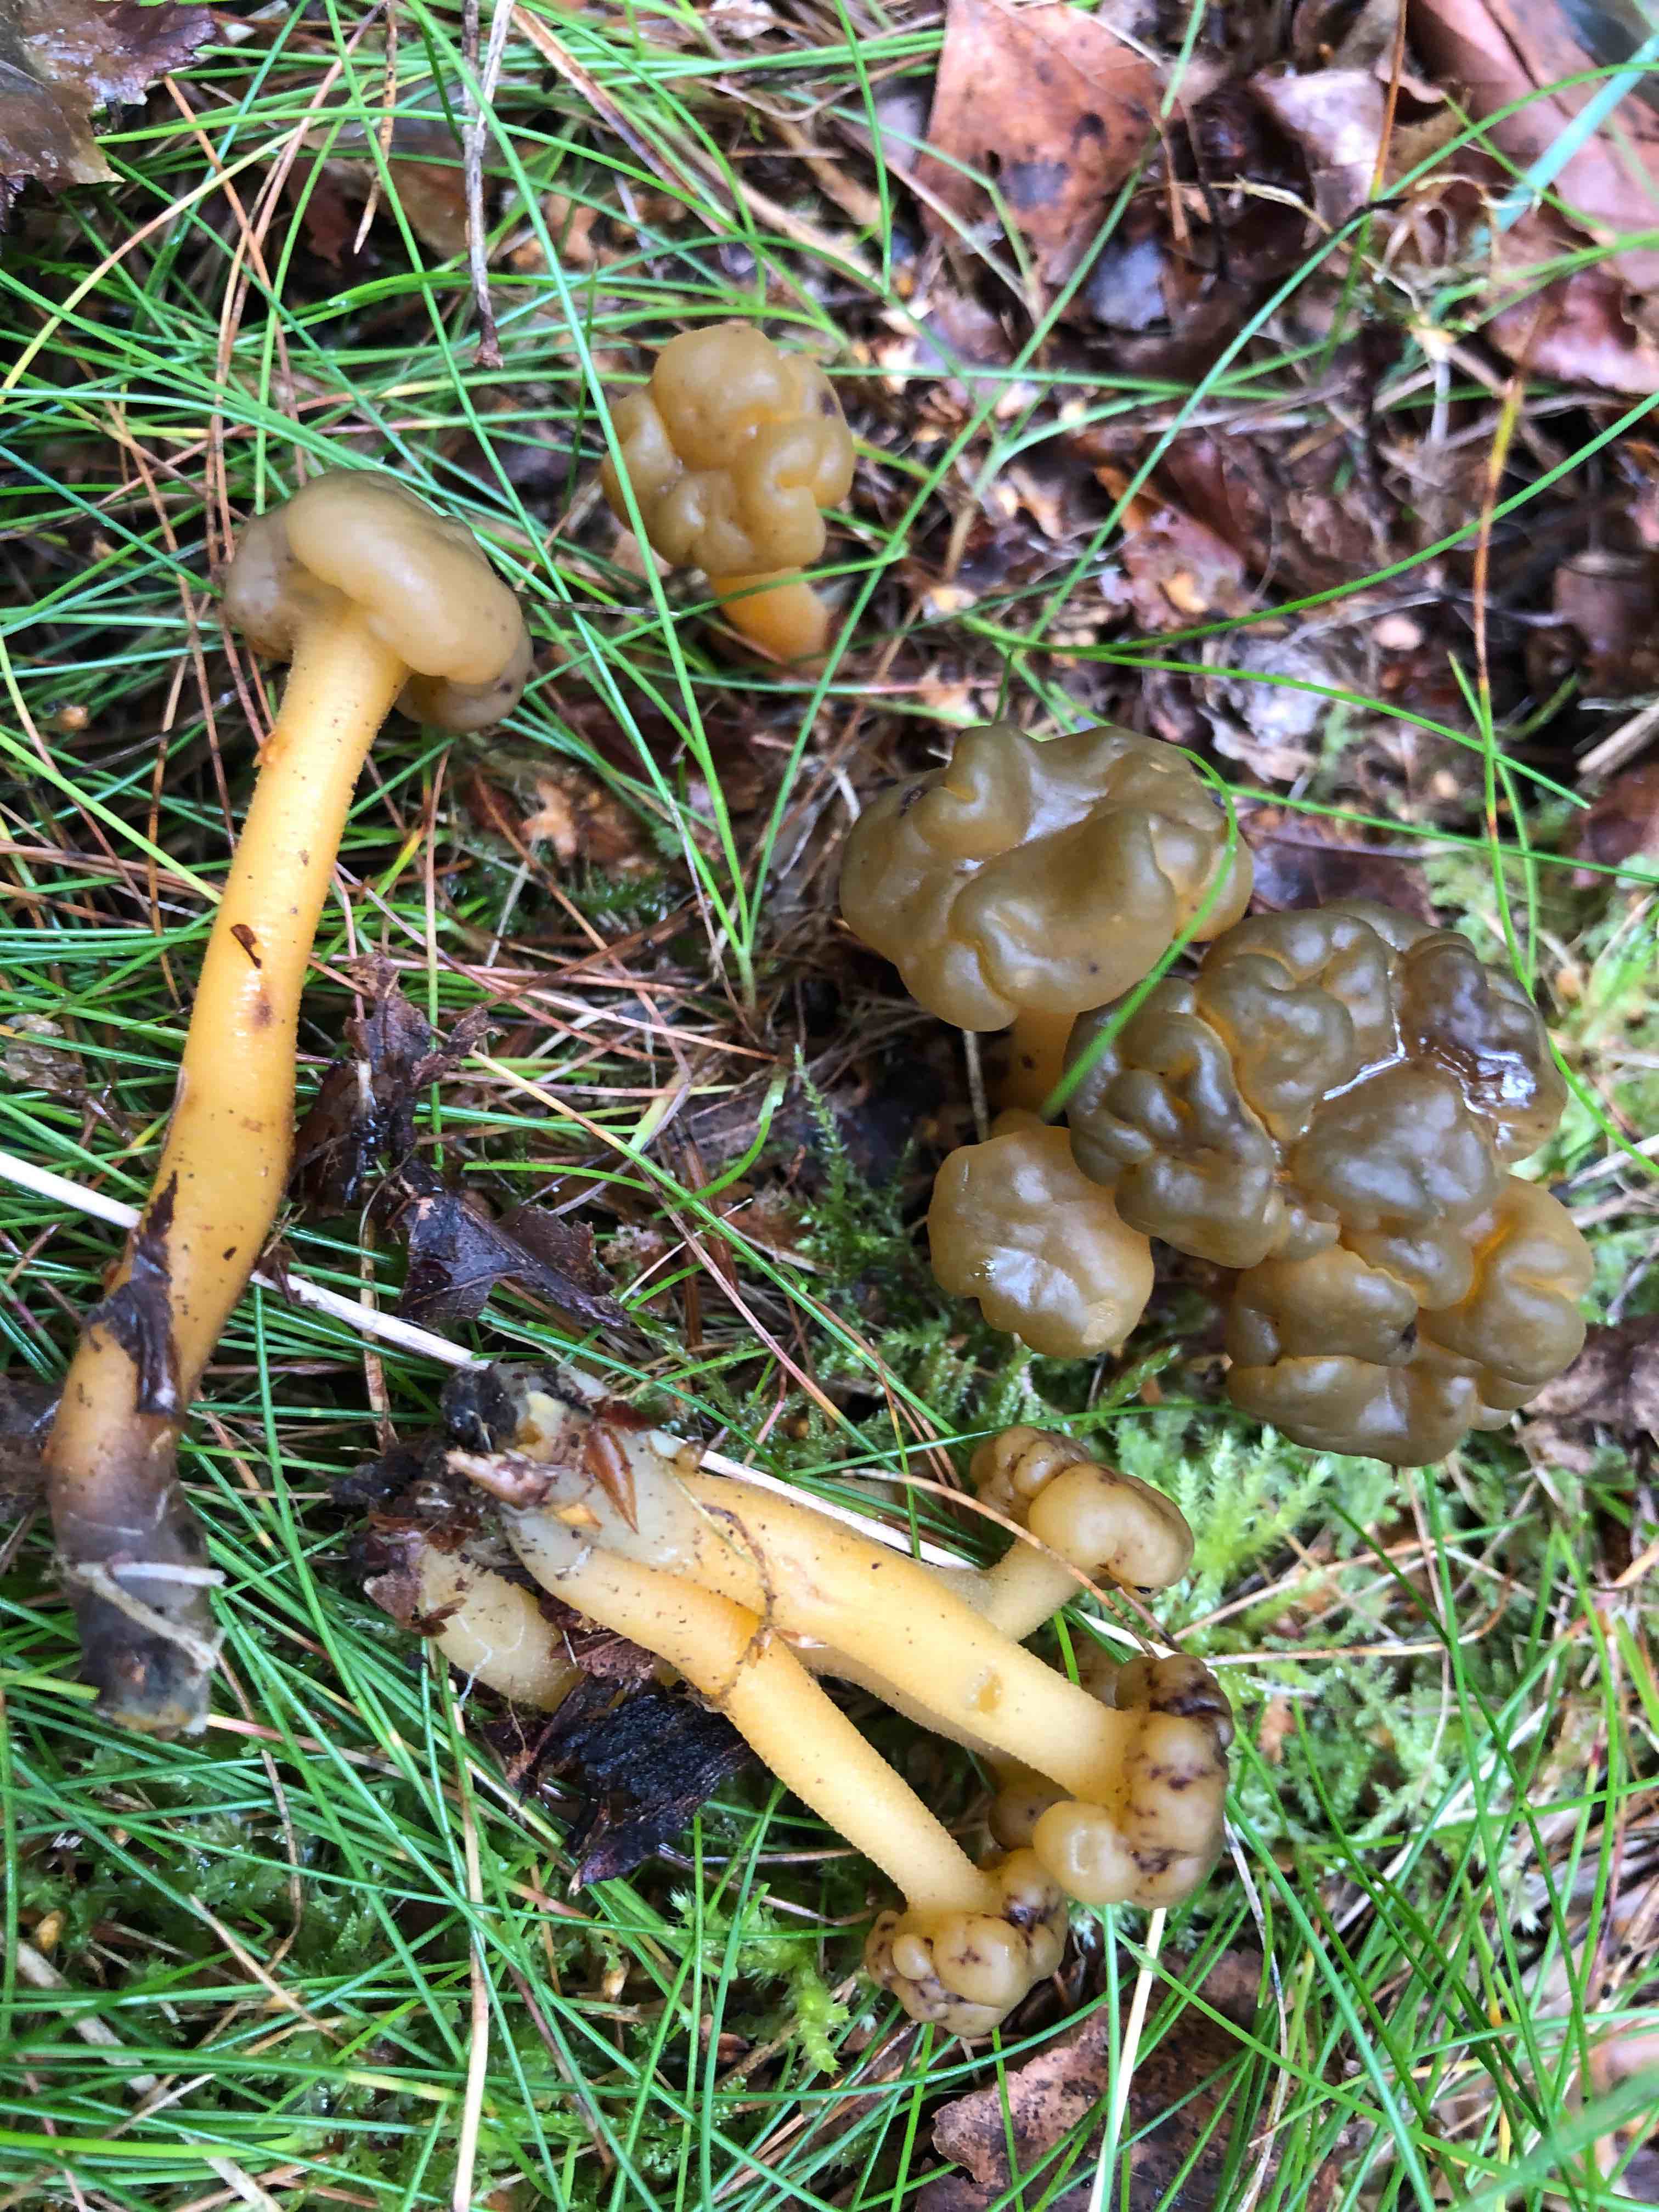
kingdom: Fungi
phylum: Ascomycota
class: Leotiomycetes
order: Leotiales
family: Leotiaceae
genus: Leotia
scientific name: Leotia lubrica
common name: ravsvamp
